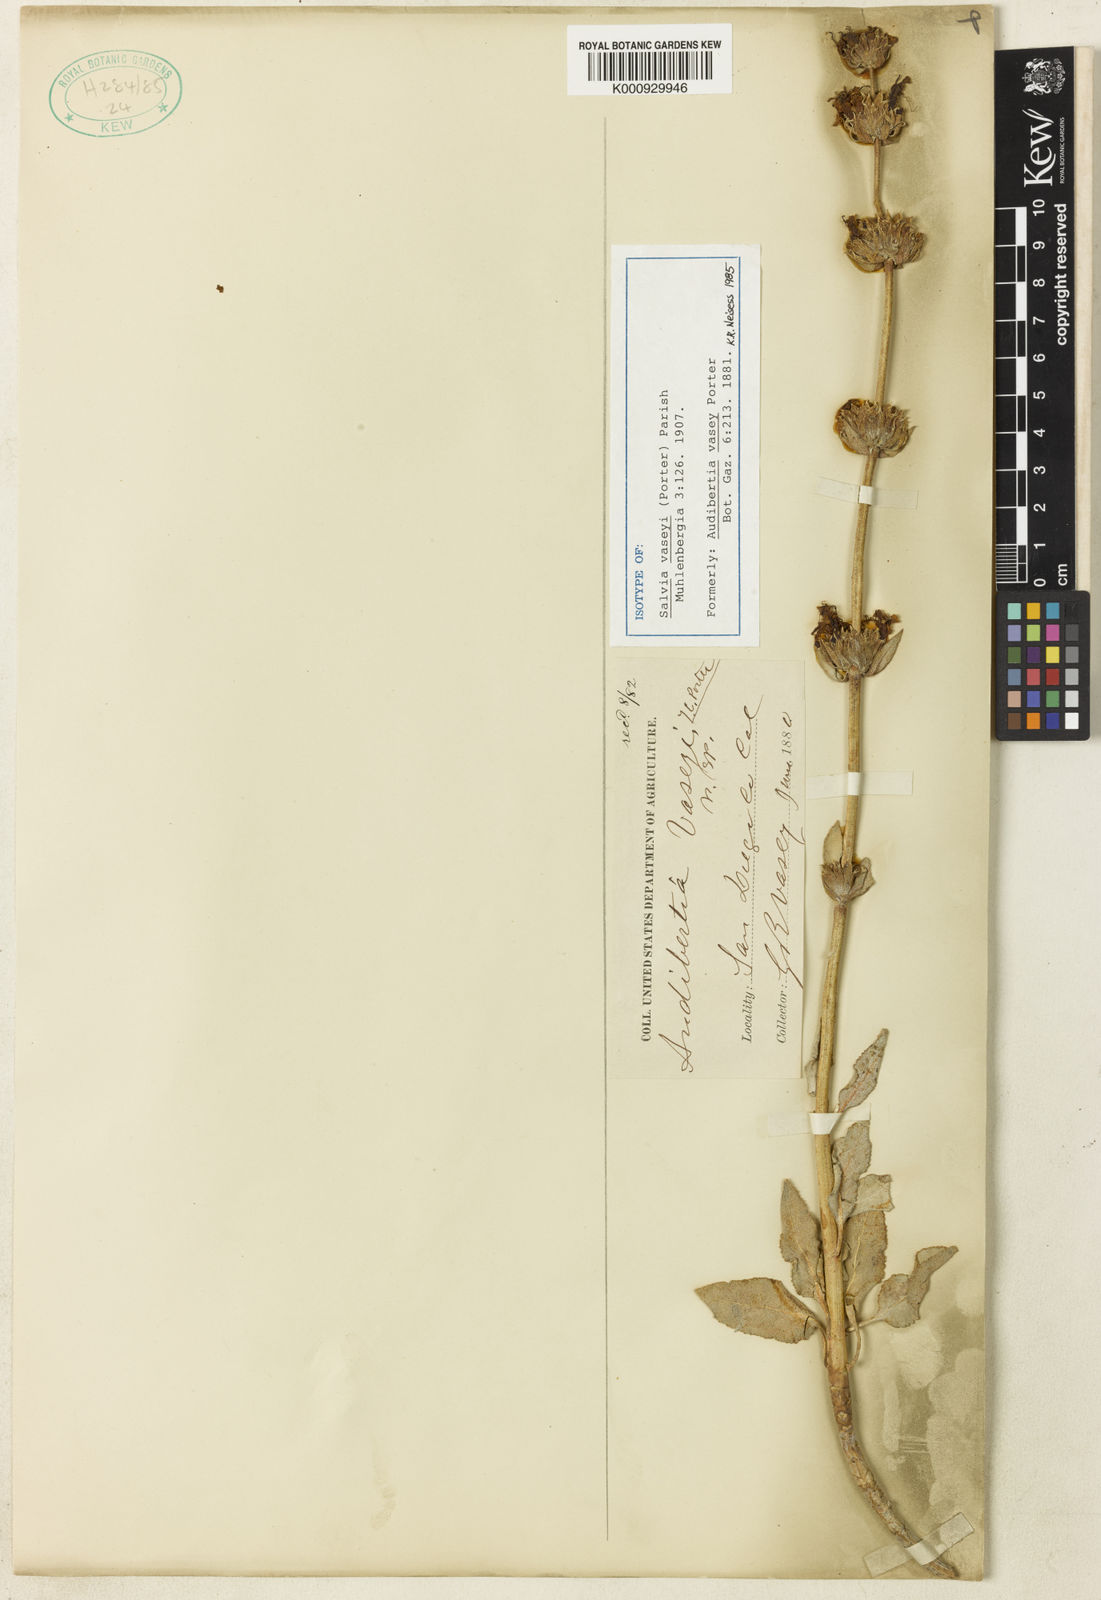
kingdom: Plantae
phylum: Tracheophyta
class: Magnoliopsida
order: Lamiales
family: Lamiaceae
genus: Salvia
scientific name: Salvia vaseyi
